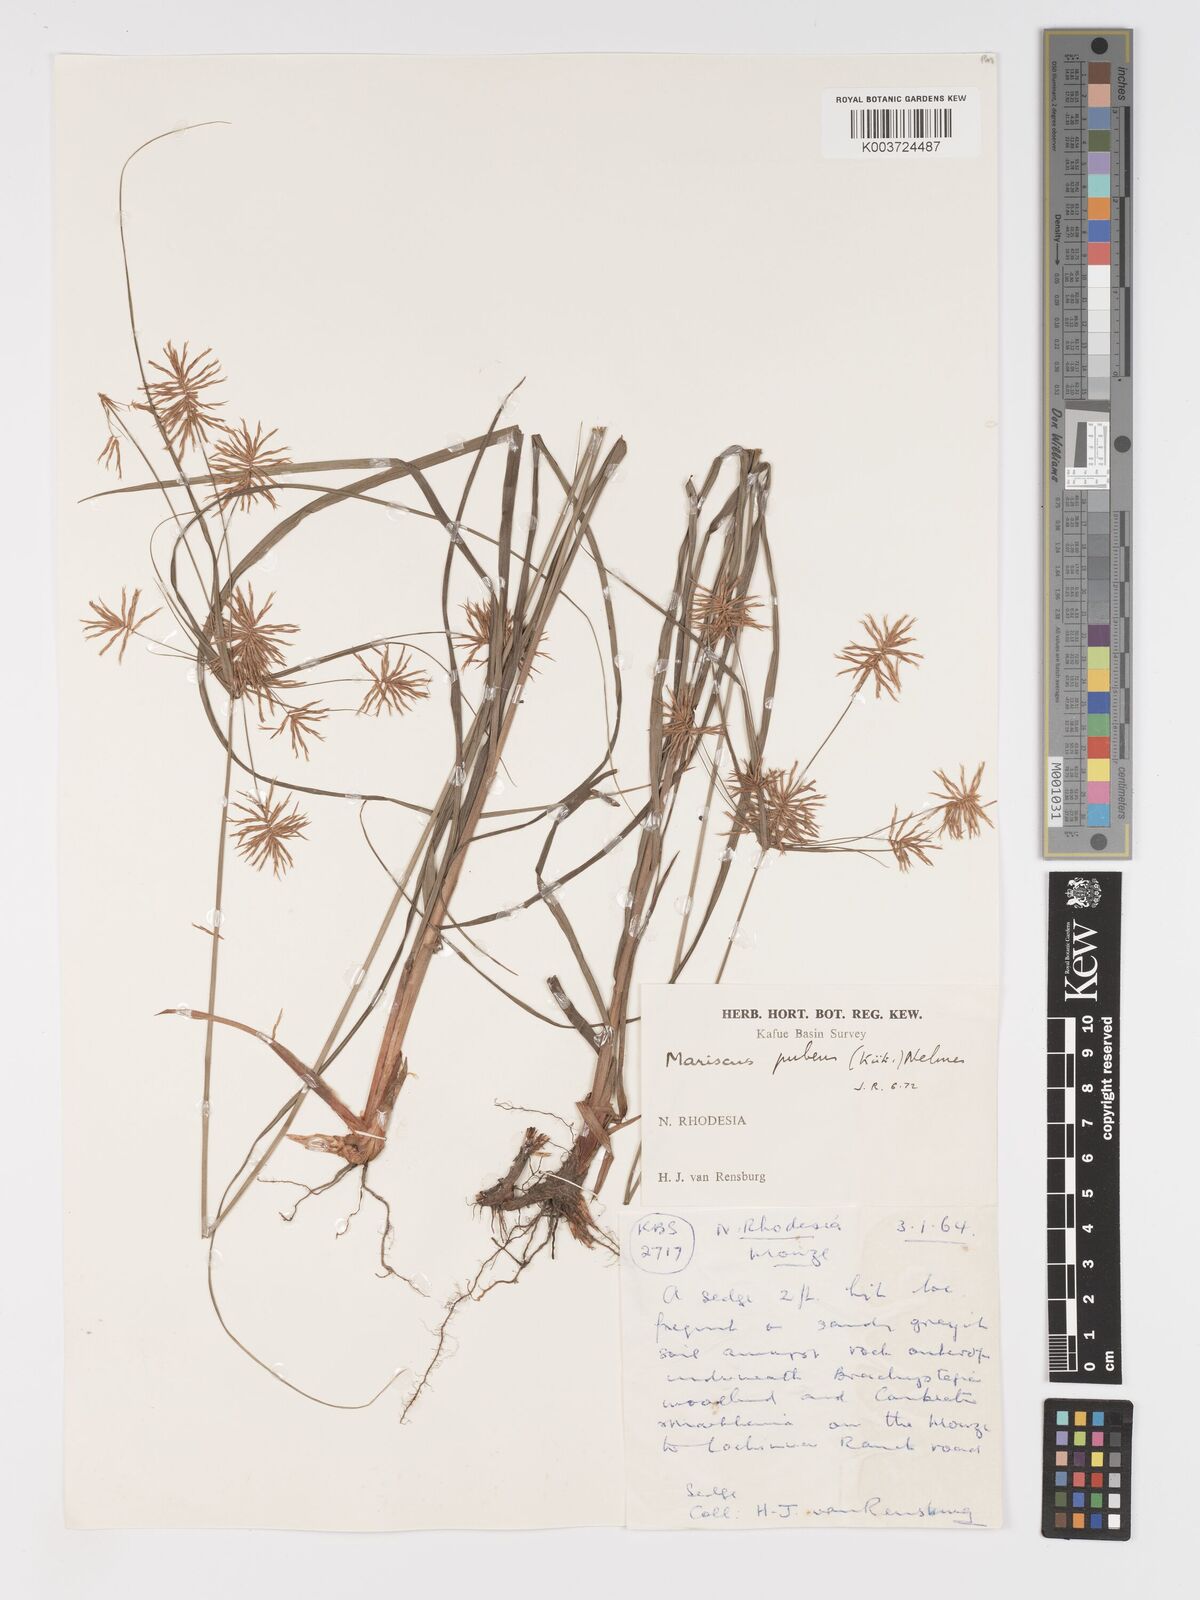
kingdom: Plantae
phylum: Tracheophyta
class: Liliopsida
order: Poales
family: Cyperaceae
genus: Cyperus
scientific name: Cyperus pubens
